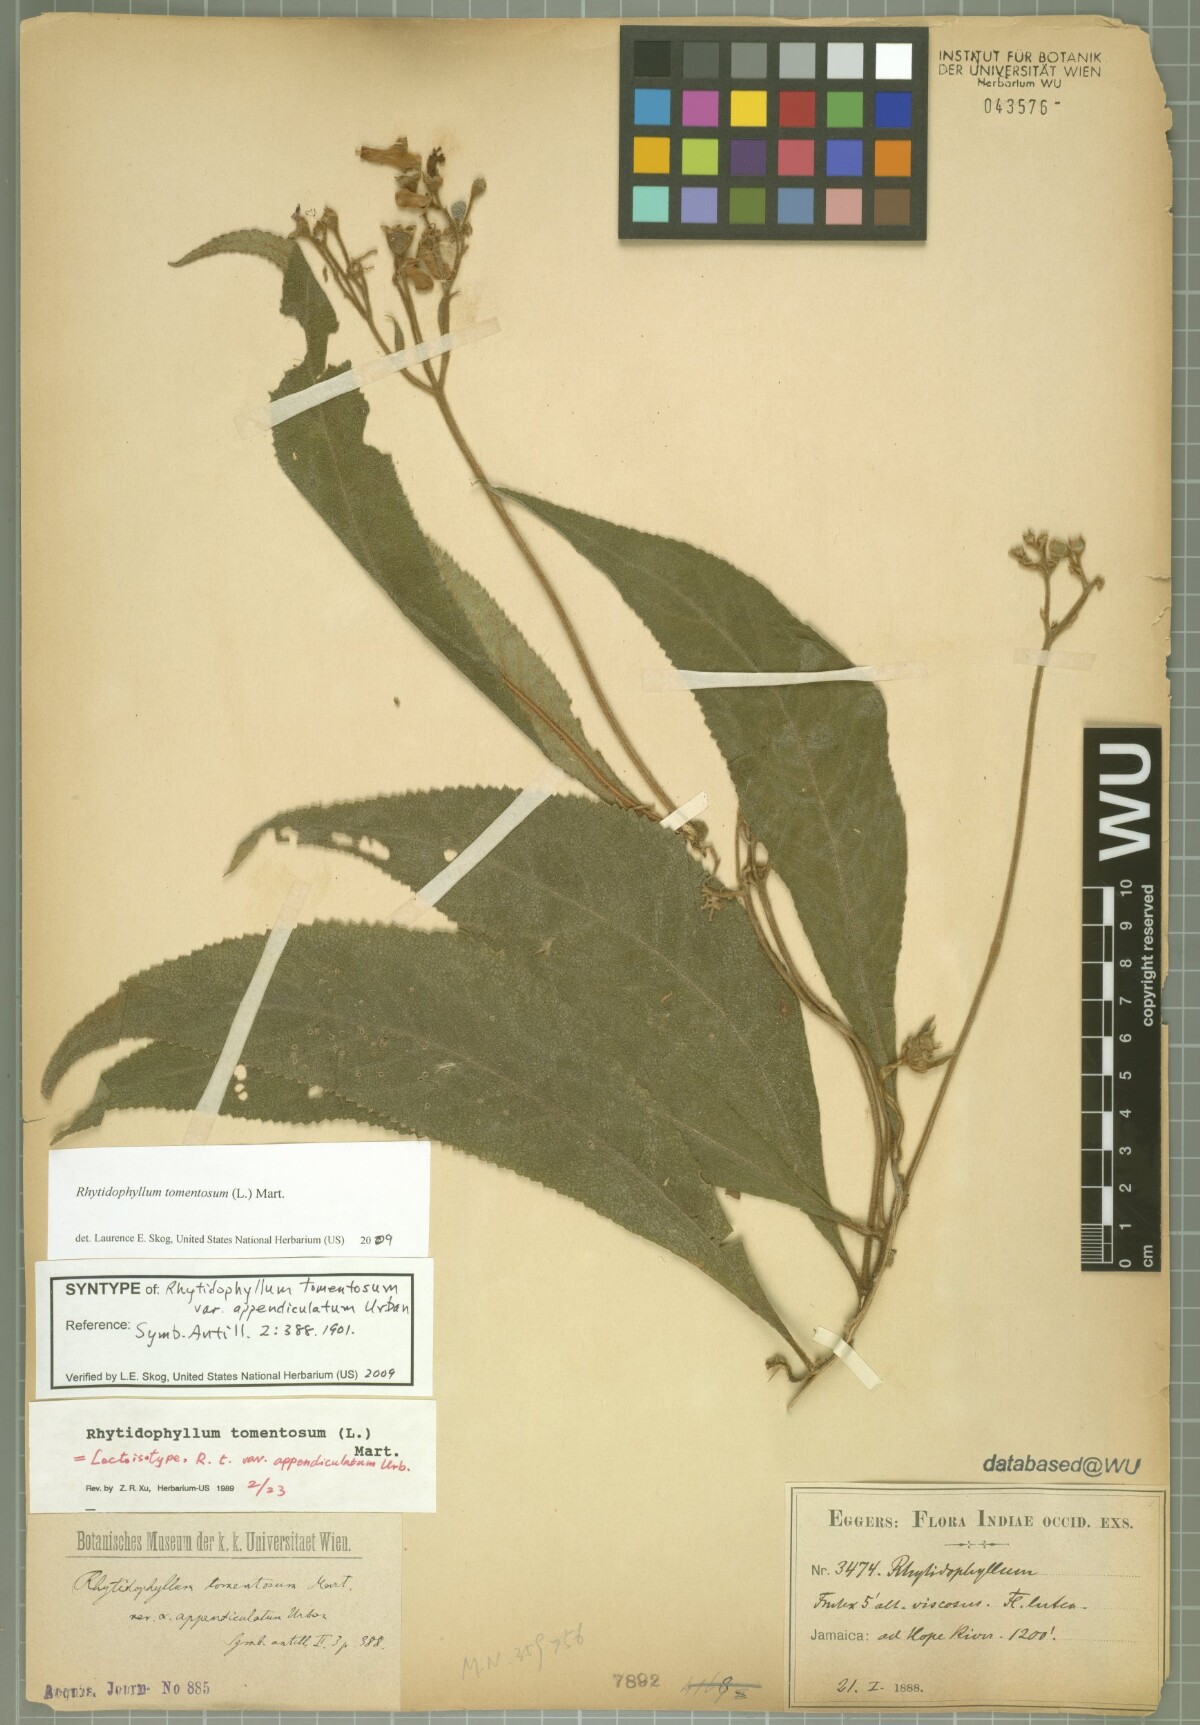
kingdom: Plantae
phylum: Tracheophyta
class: Magnoliopsida
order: Lamiales
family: Gesneriaceae
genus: Rhytidophyllum
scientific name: Rhytidophyllum tomentosum
